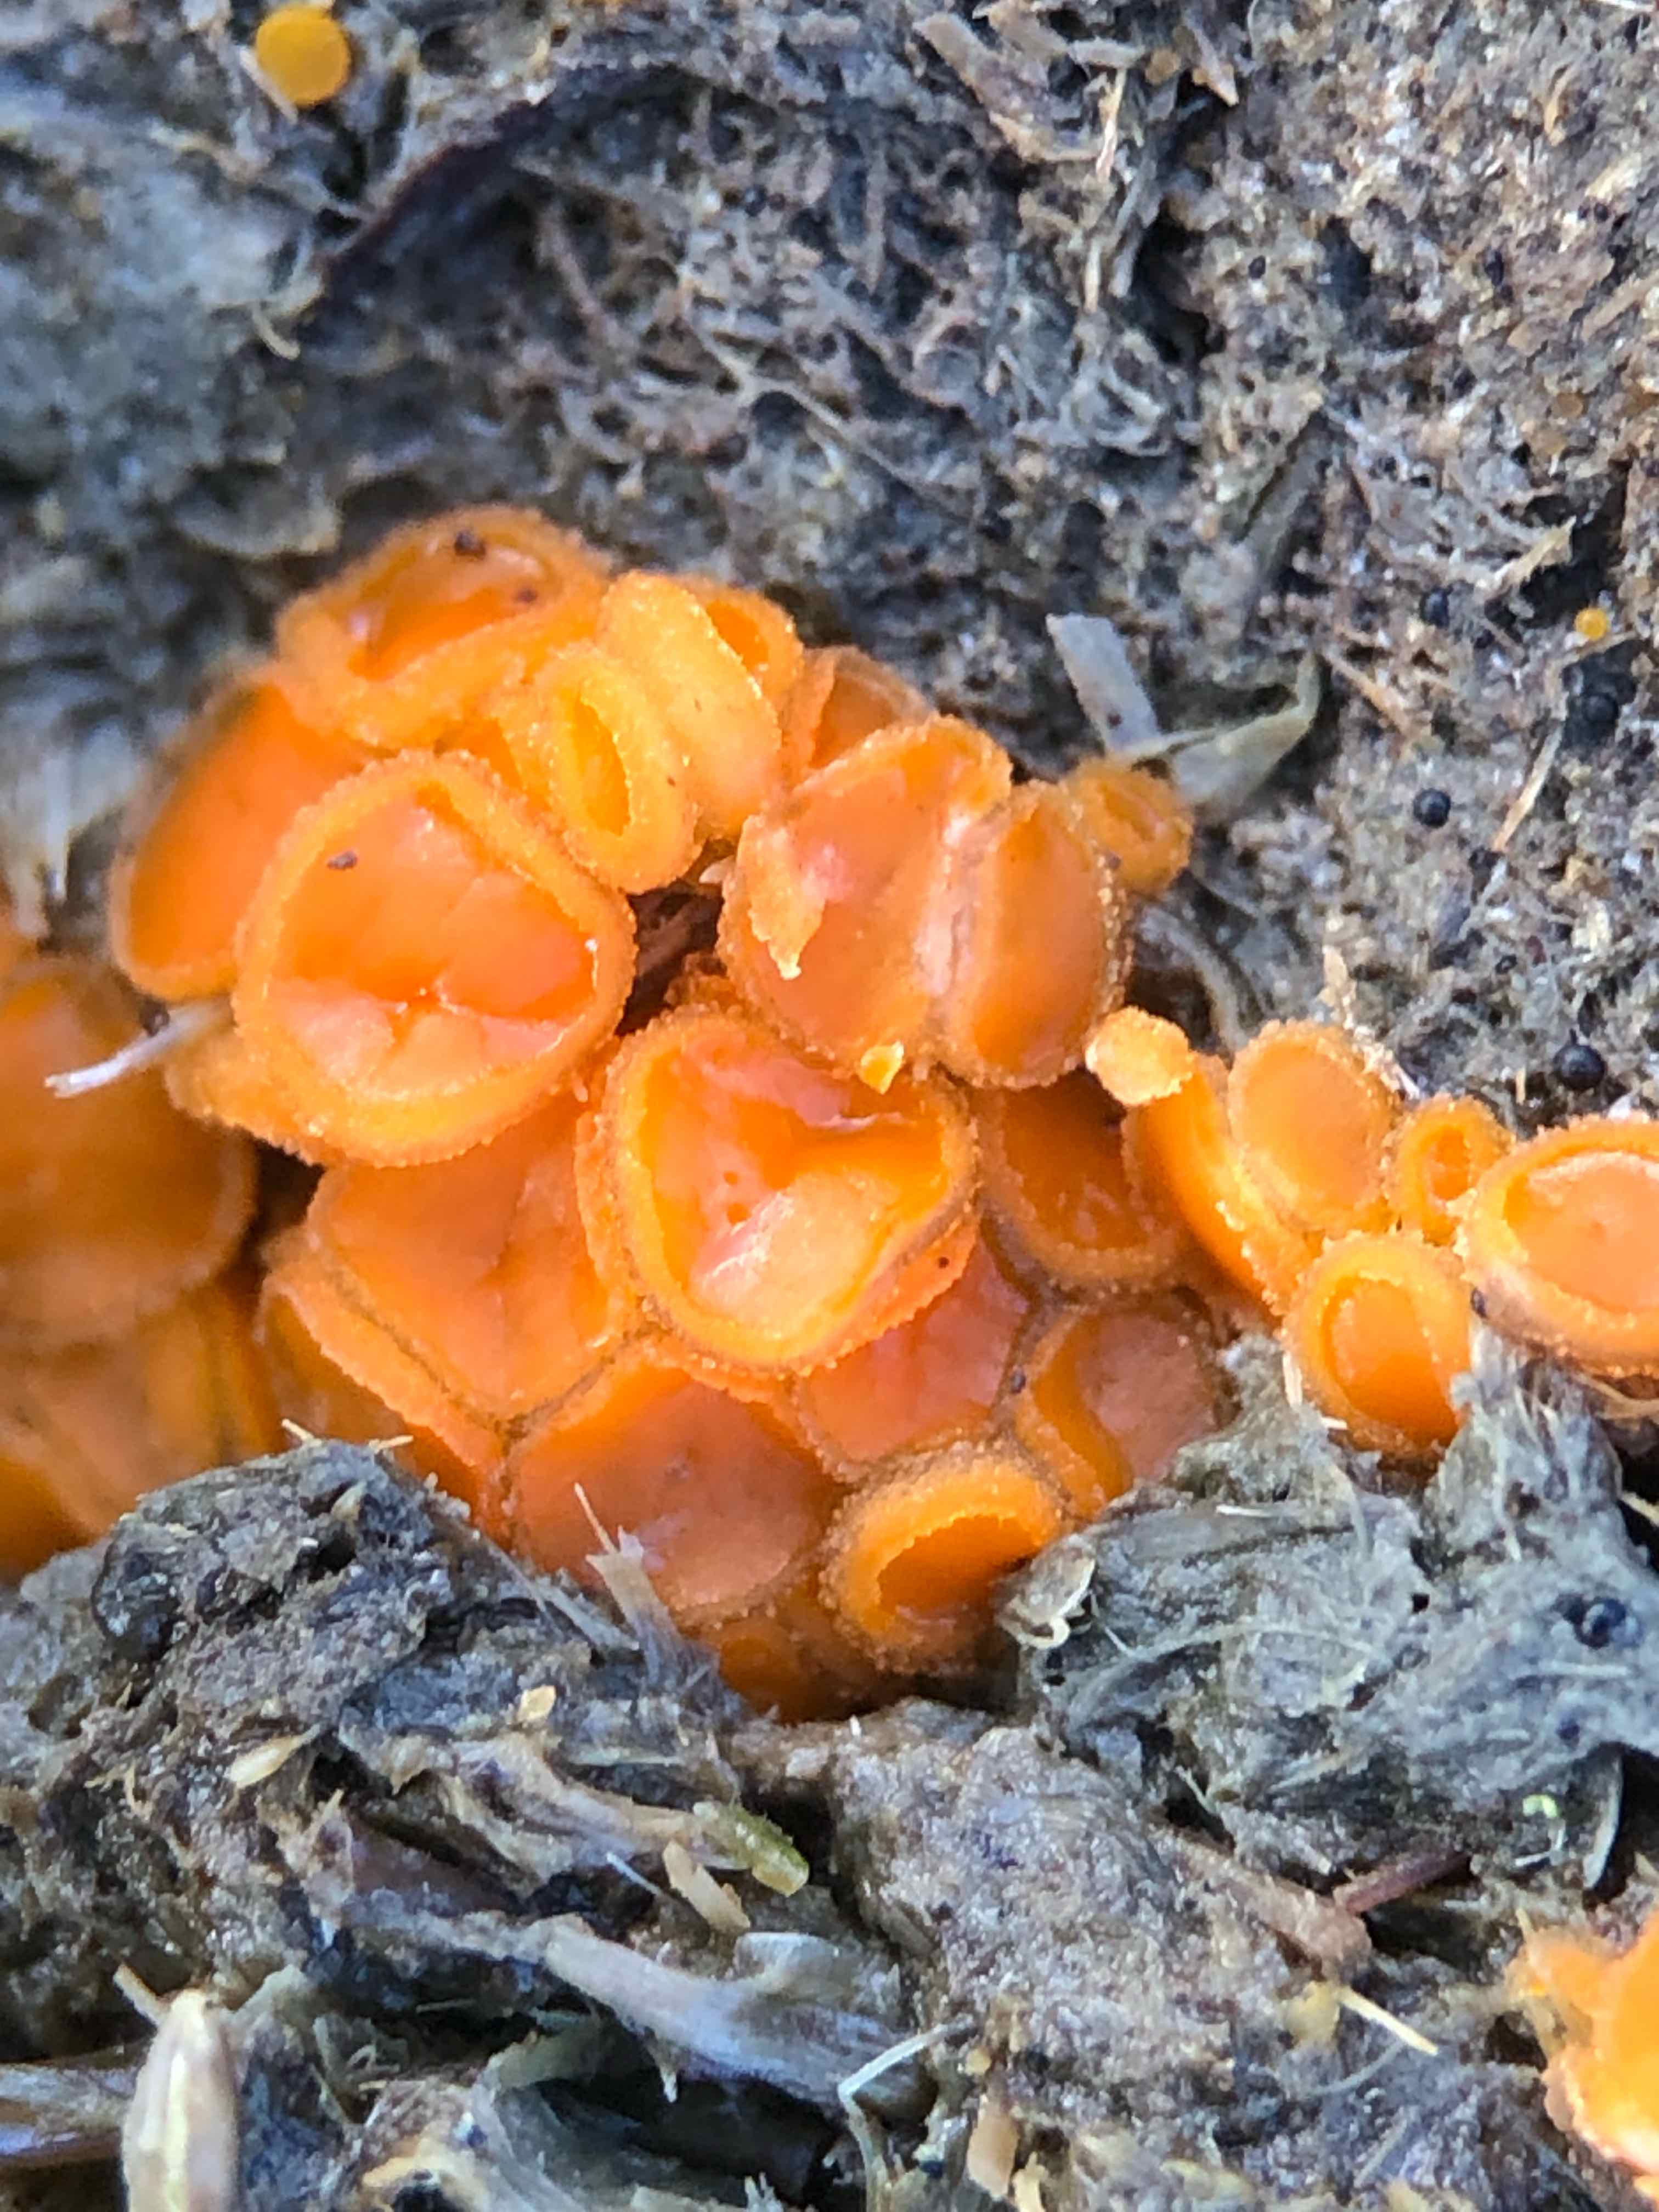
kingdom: Fungi
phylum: Ascomycota
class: Pezizomycetes
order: Pezizales
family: Pyronemataceae
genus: Cheilymenia
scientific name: Cheilymenia granulata
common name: møgbæger
